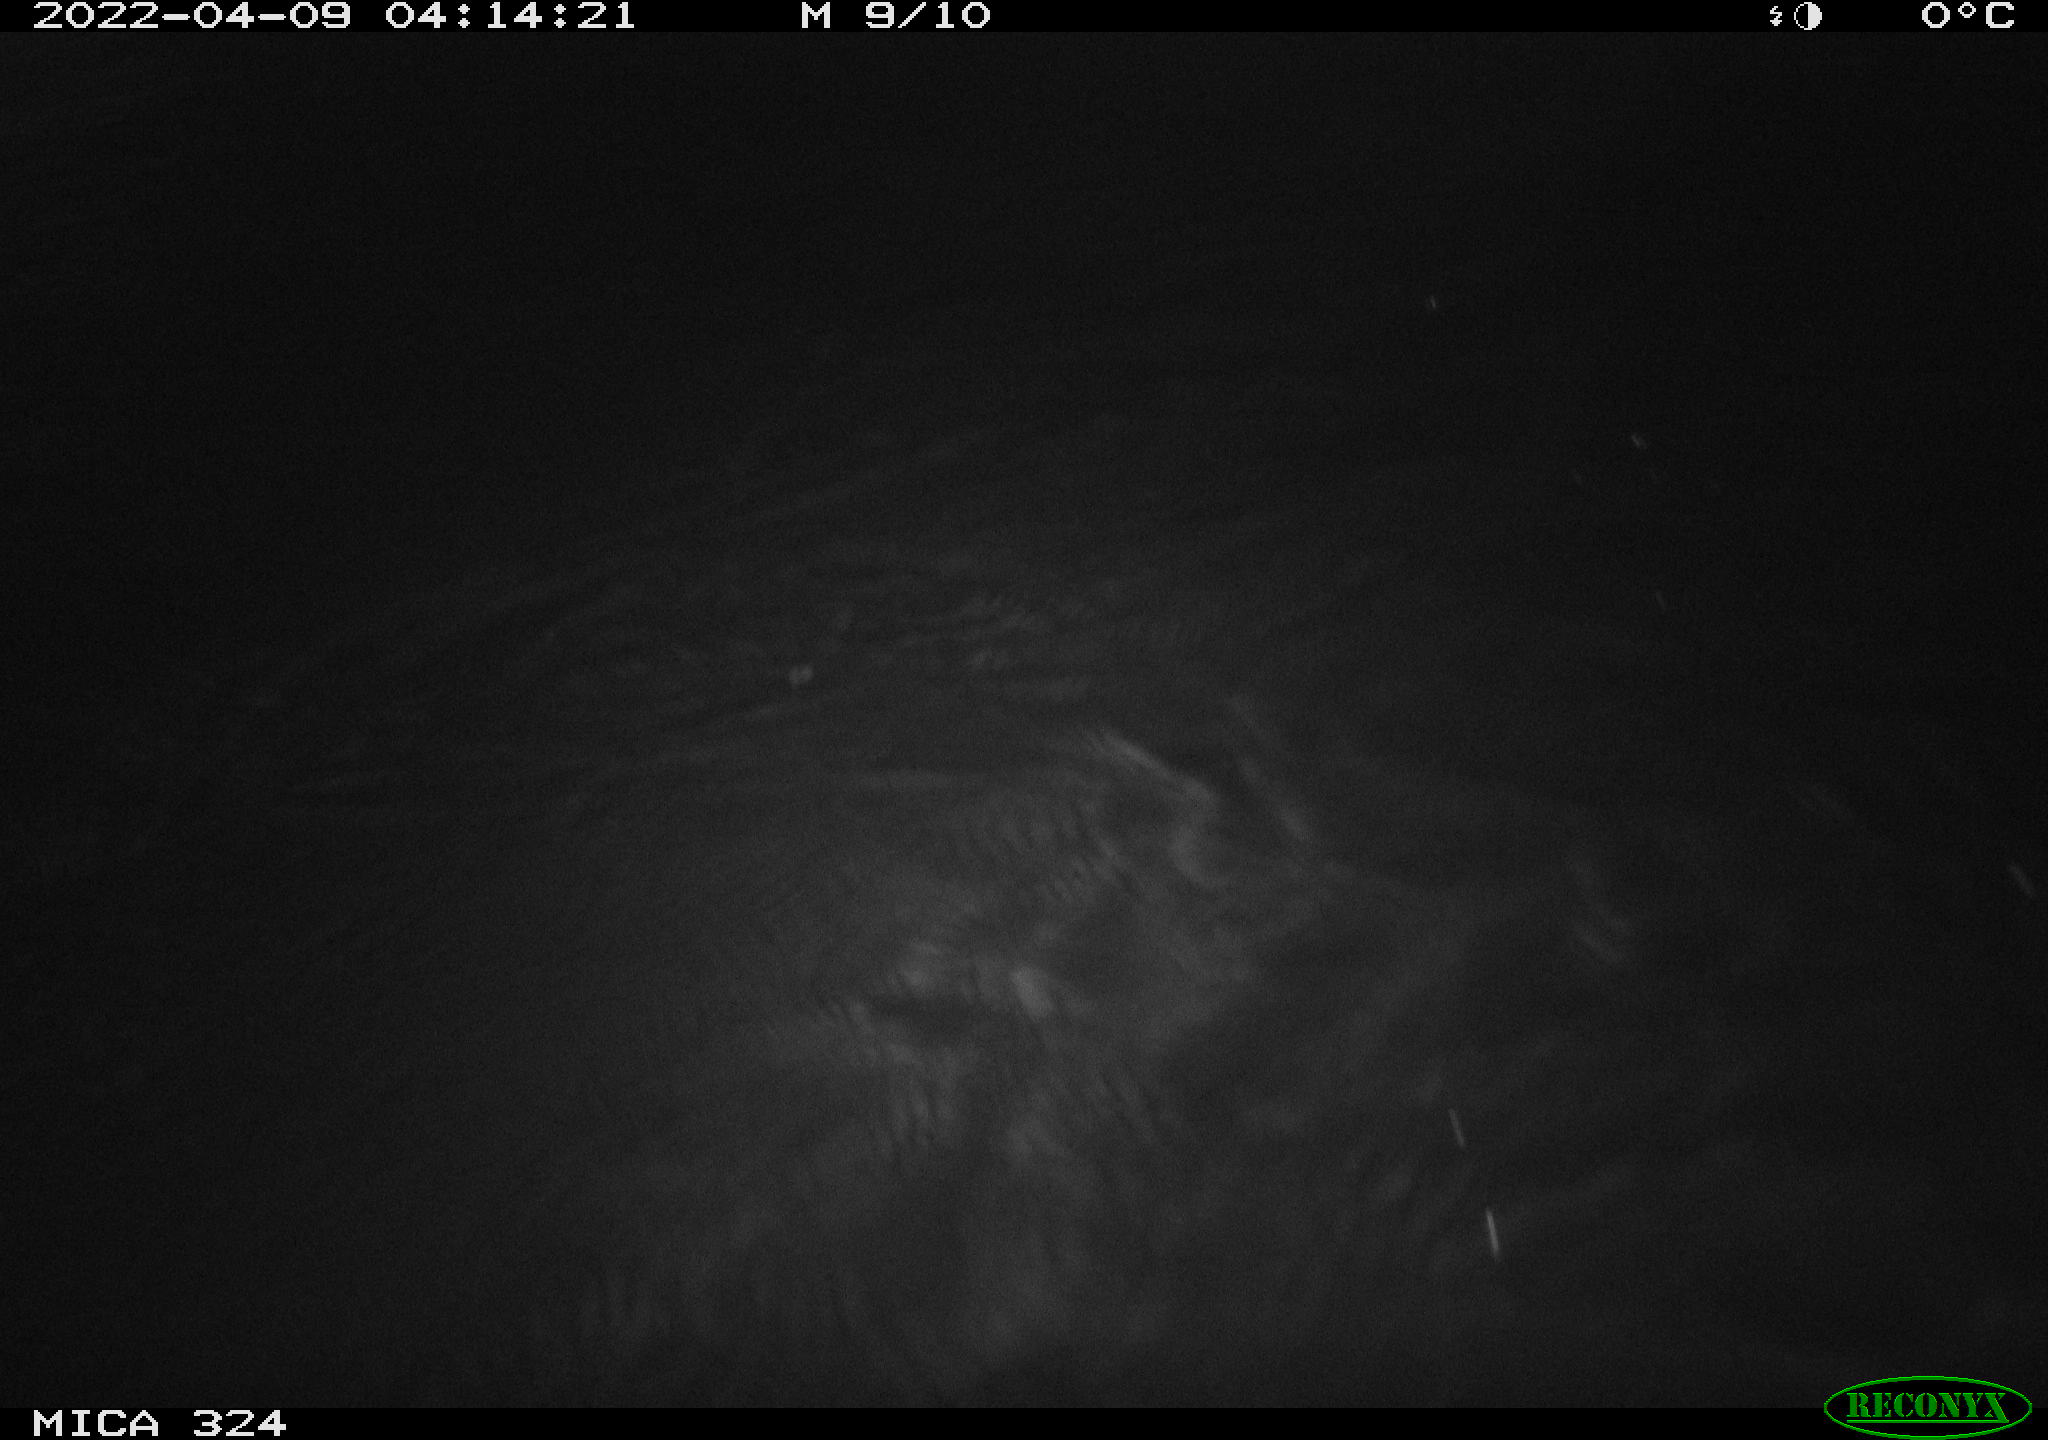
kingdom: Animalia
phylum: Chordata
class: Mammalia
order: Rodentia
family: Cricetidae
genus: Ondatra
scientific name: Ondatra zibethicus
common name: Muskrat
